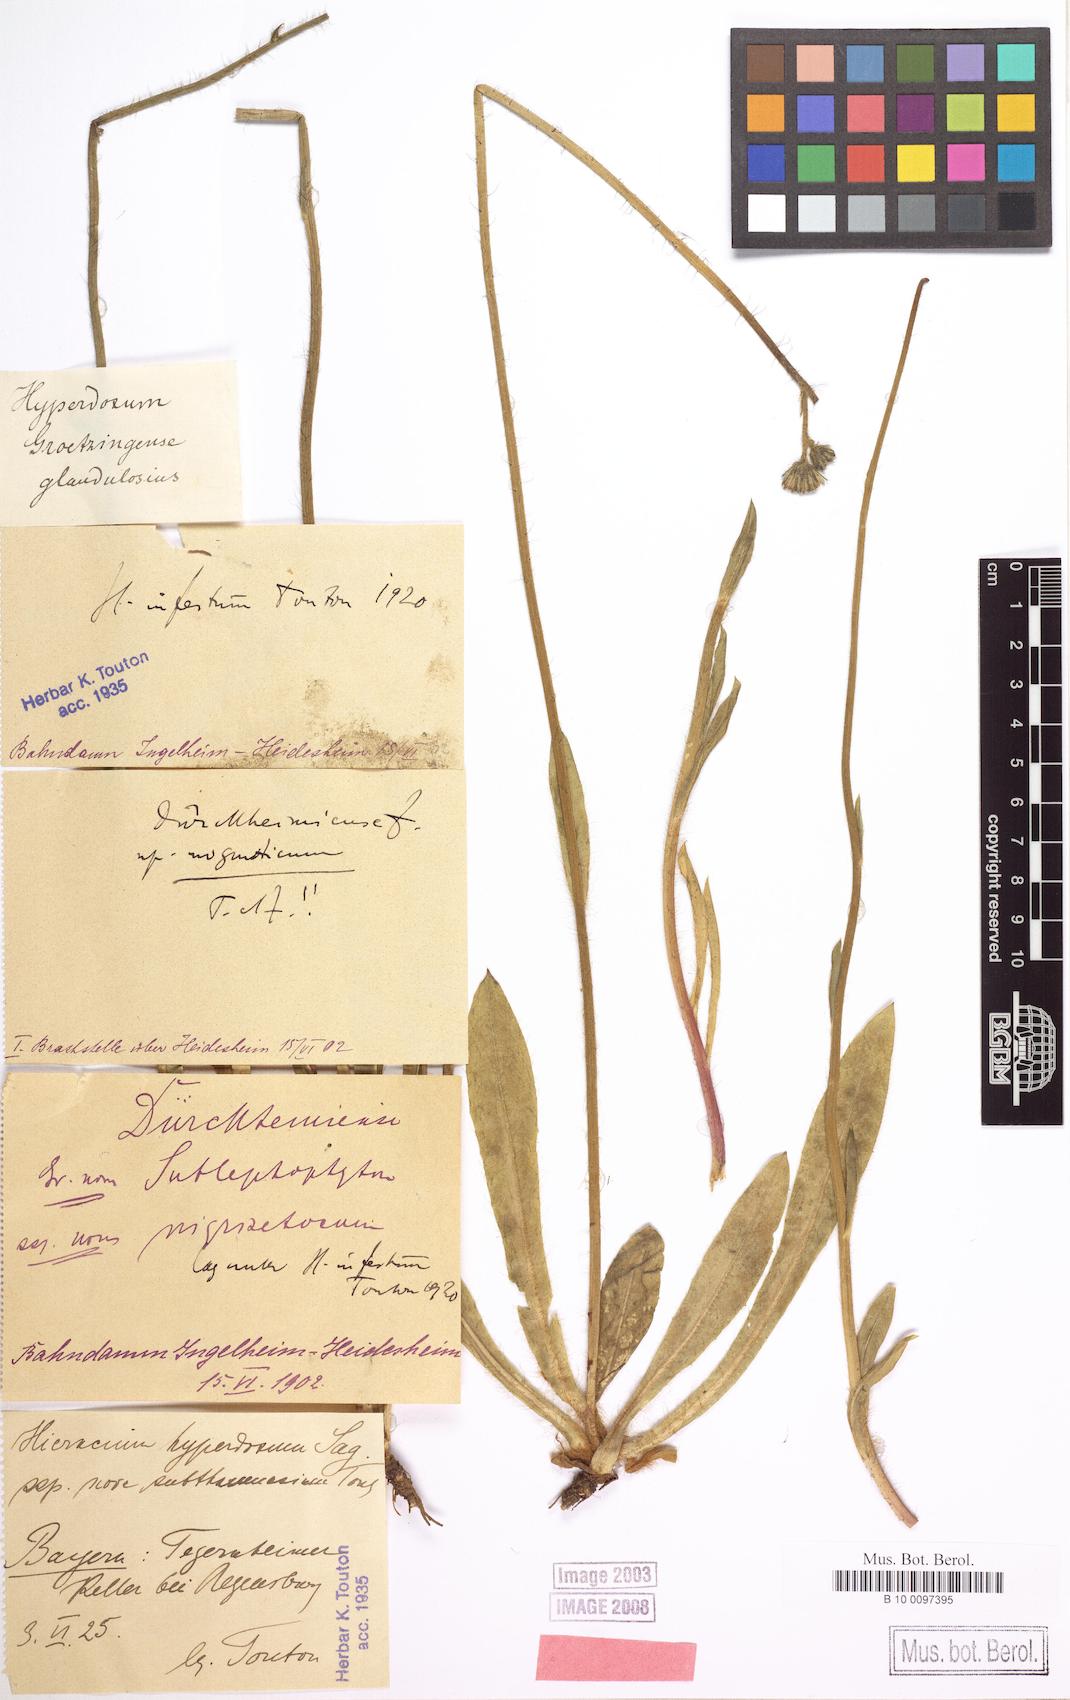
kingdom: Plantae
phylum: Tracheophyta
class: Magnoliopsida
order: Asterales
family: Asteraceae
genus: Pilosella
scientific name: Pilosella visianii
